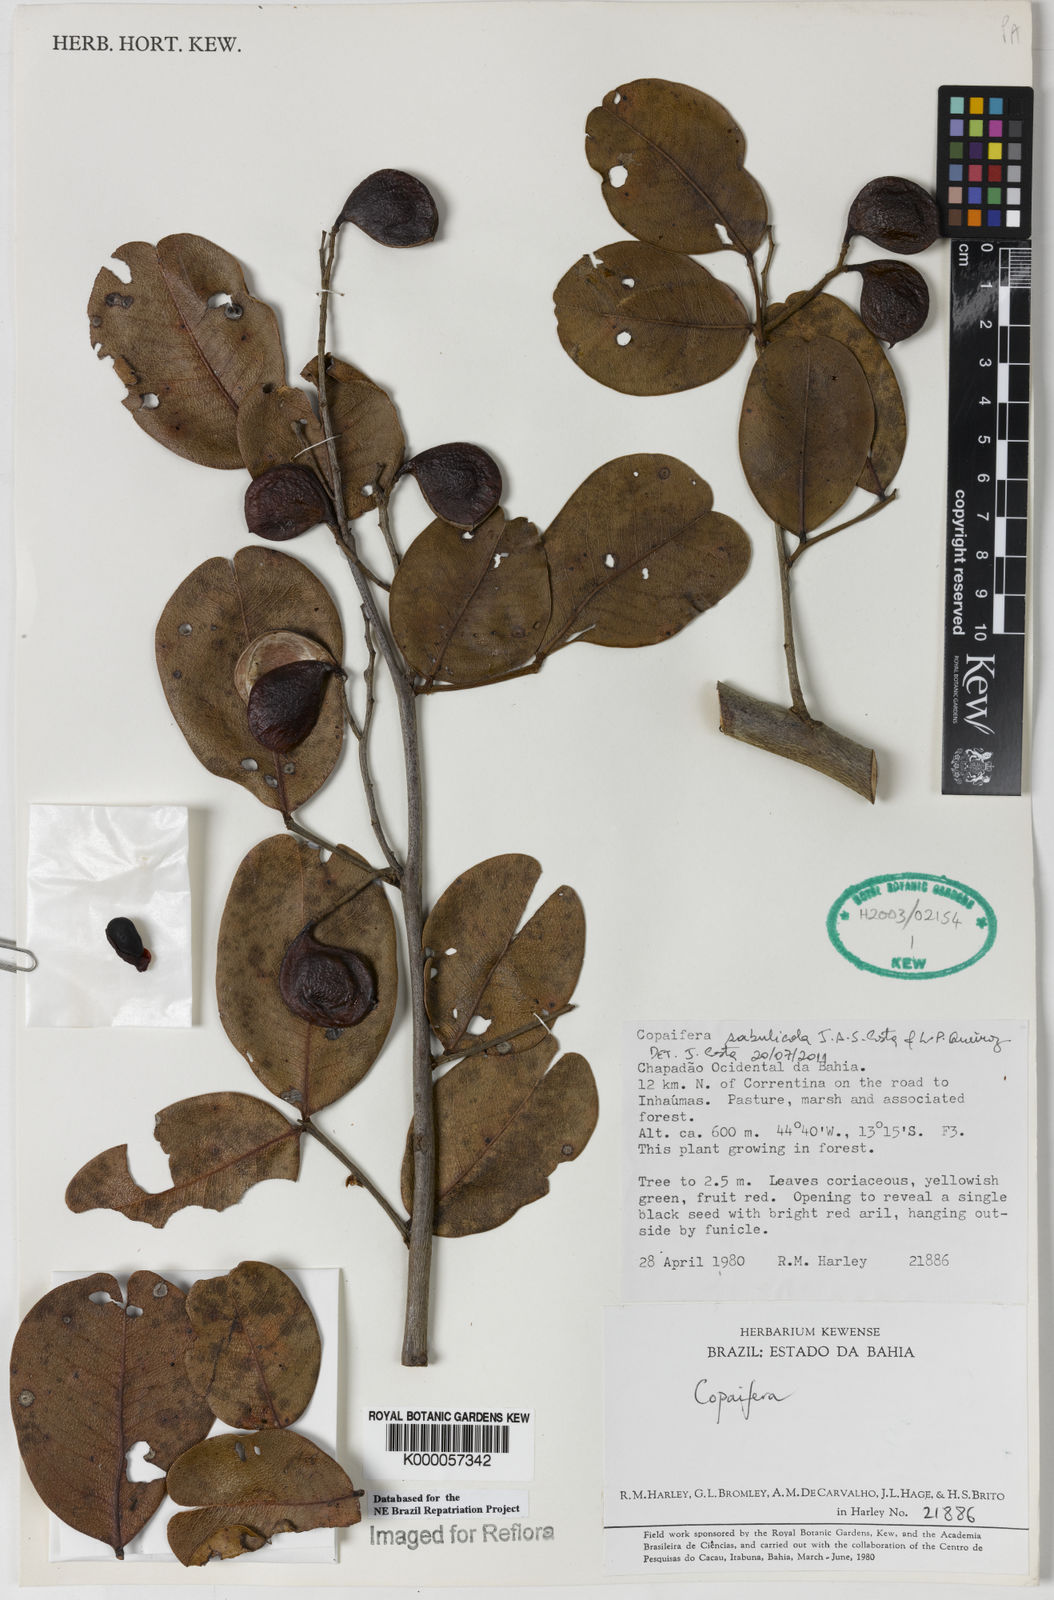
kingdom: Plantae
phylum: Tracheophyta
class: Magnoliopsida
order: Fabales
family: Fabaceae
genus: Copaifera
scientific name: Copaifera sabulicola
